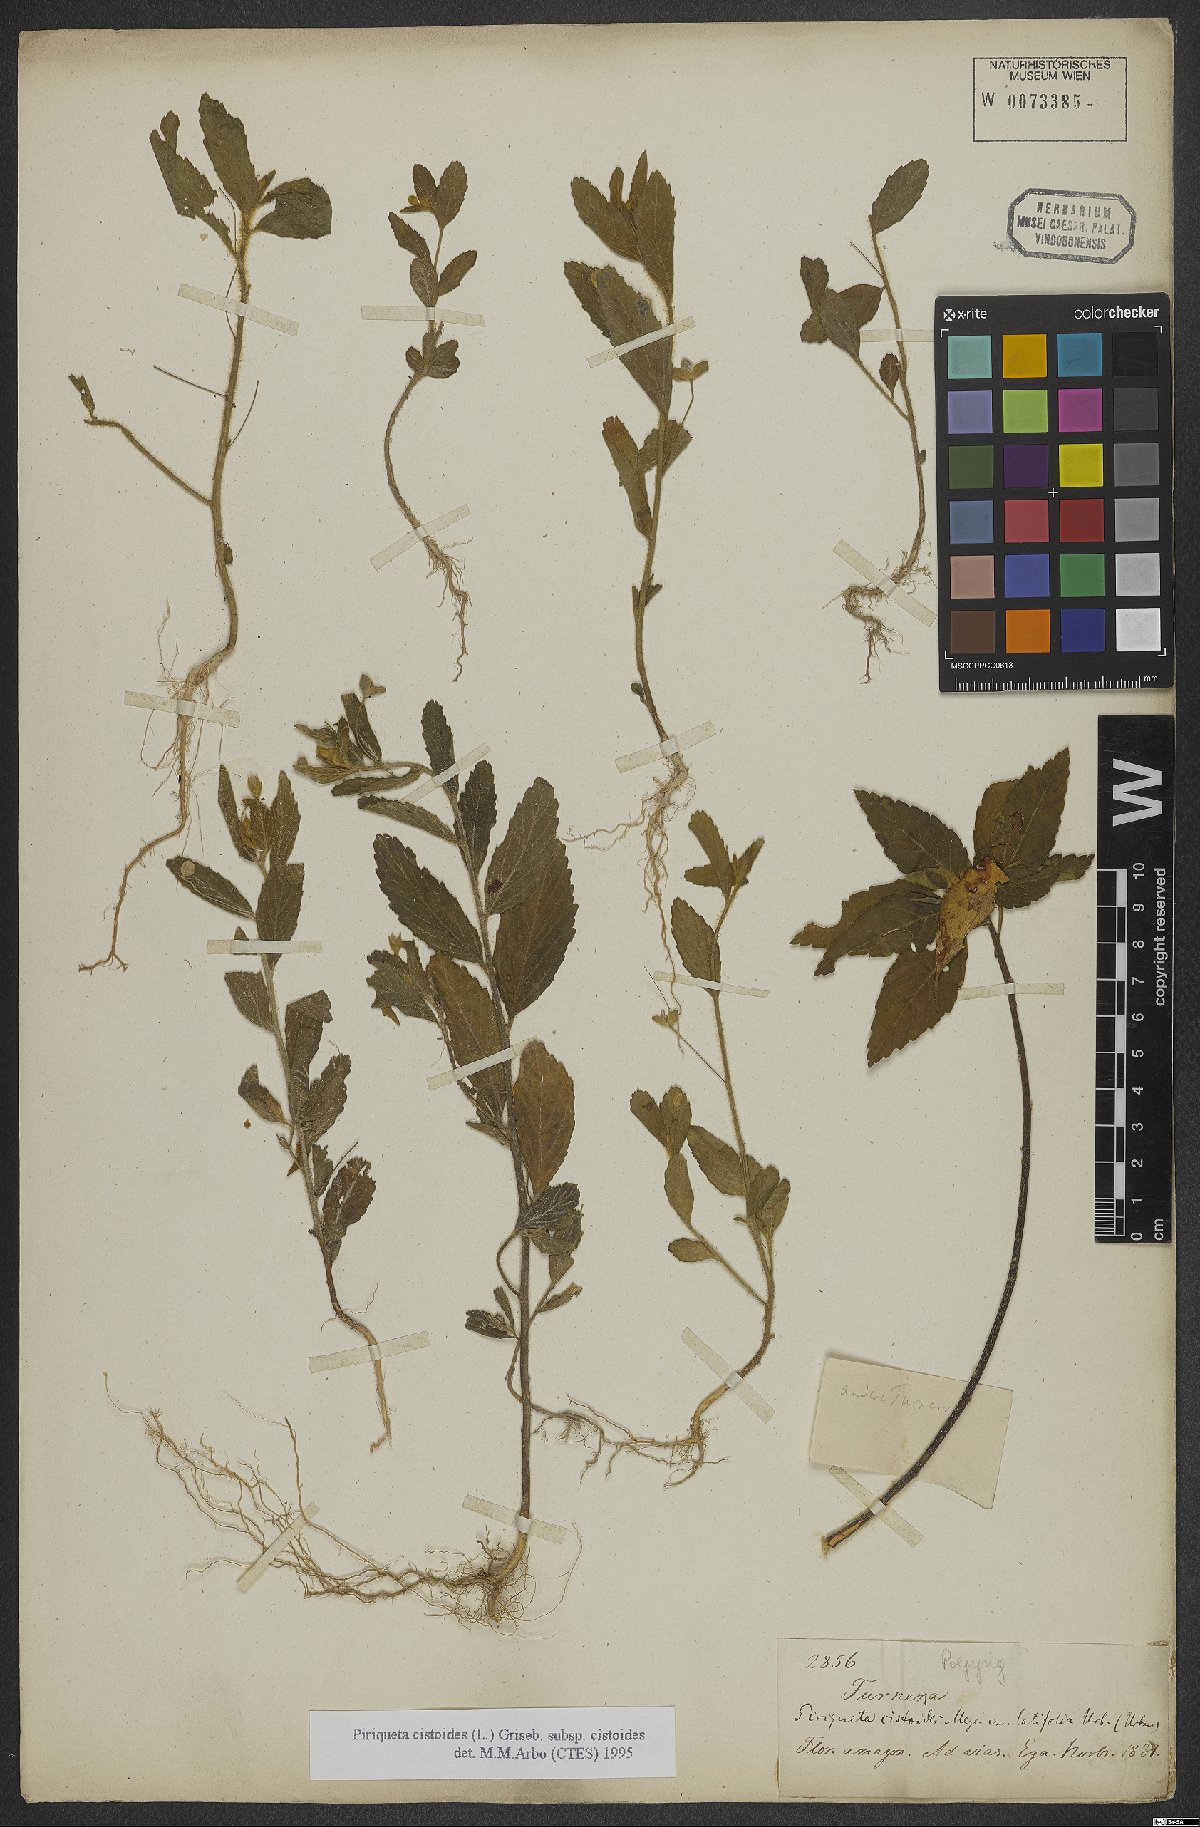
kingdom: Plantae
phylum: Tracheophyta
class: Magnoliopsida
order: Malpighiales
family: Turneraceae
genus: Piriqueta
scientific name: Piriqueta cistoides
